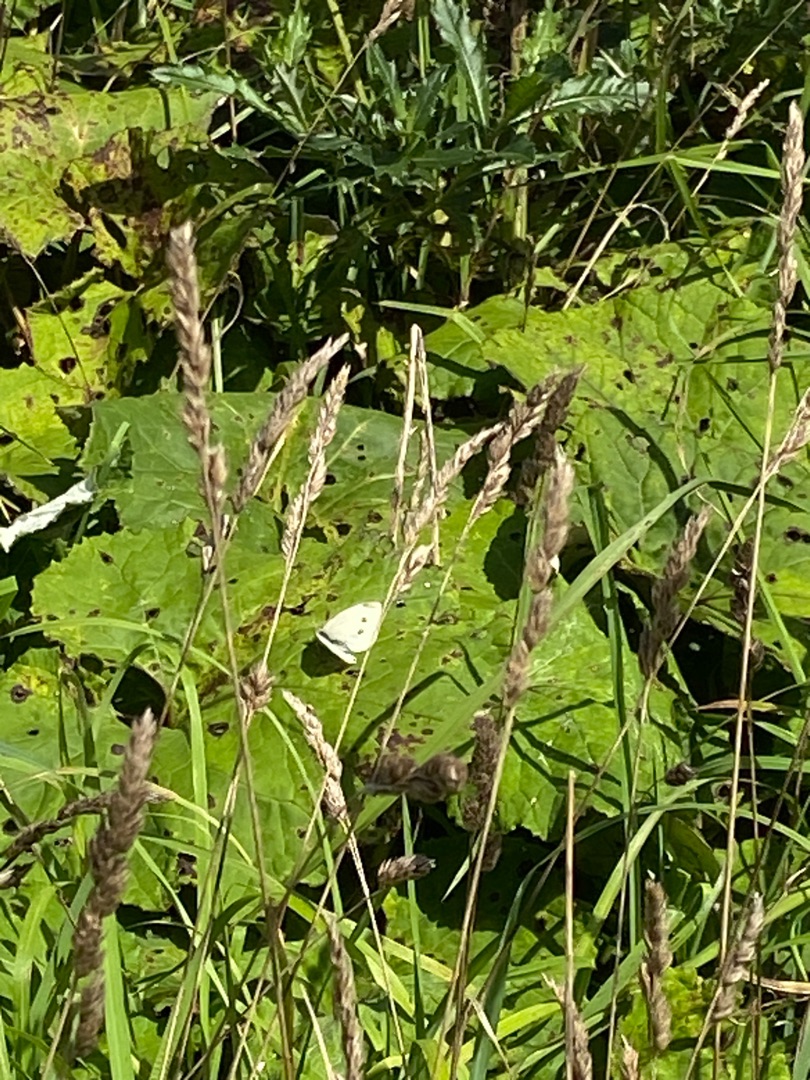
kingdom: Animalia
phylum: Arthropoda
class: Insecta
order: Lepidoptera
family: Pieridae
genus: Pieris
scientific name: Pieris rapae
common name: Lille kålsommerfugl
